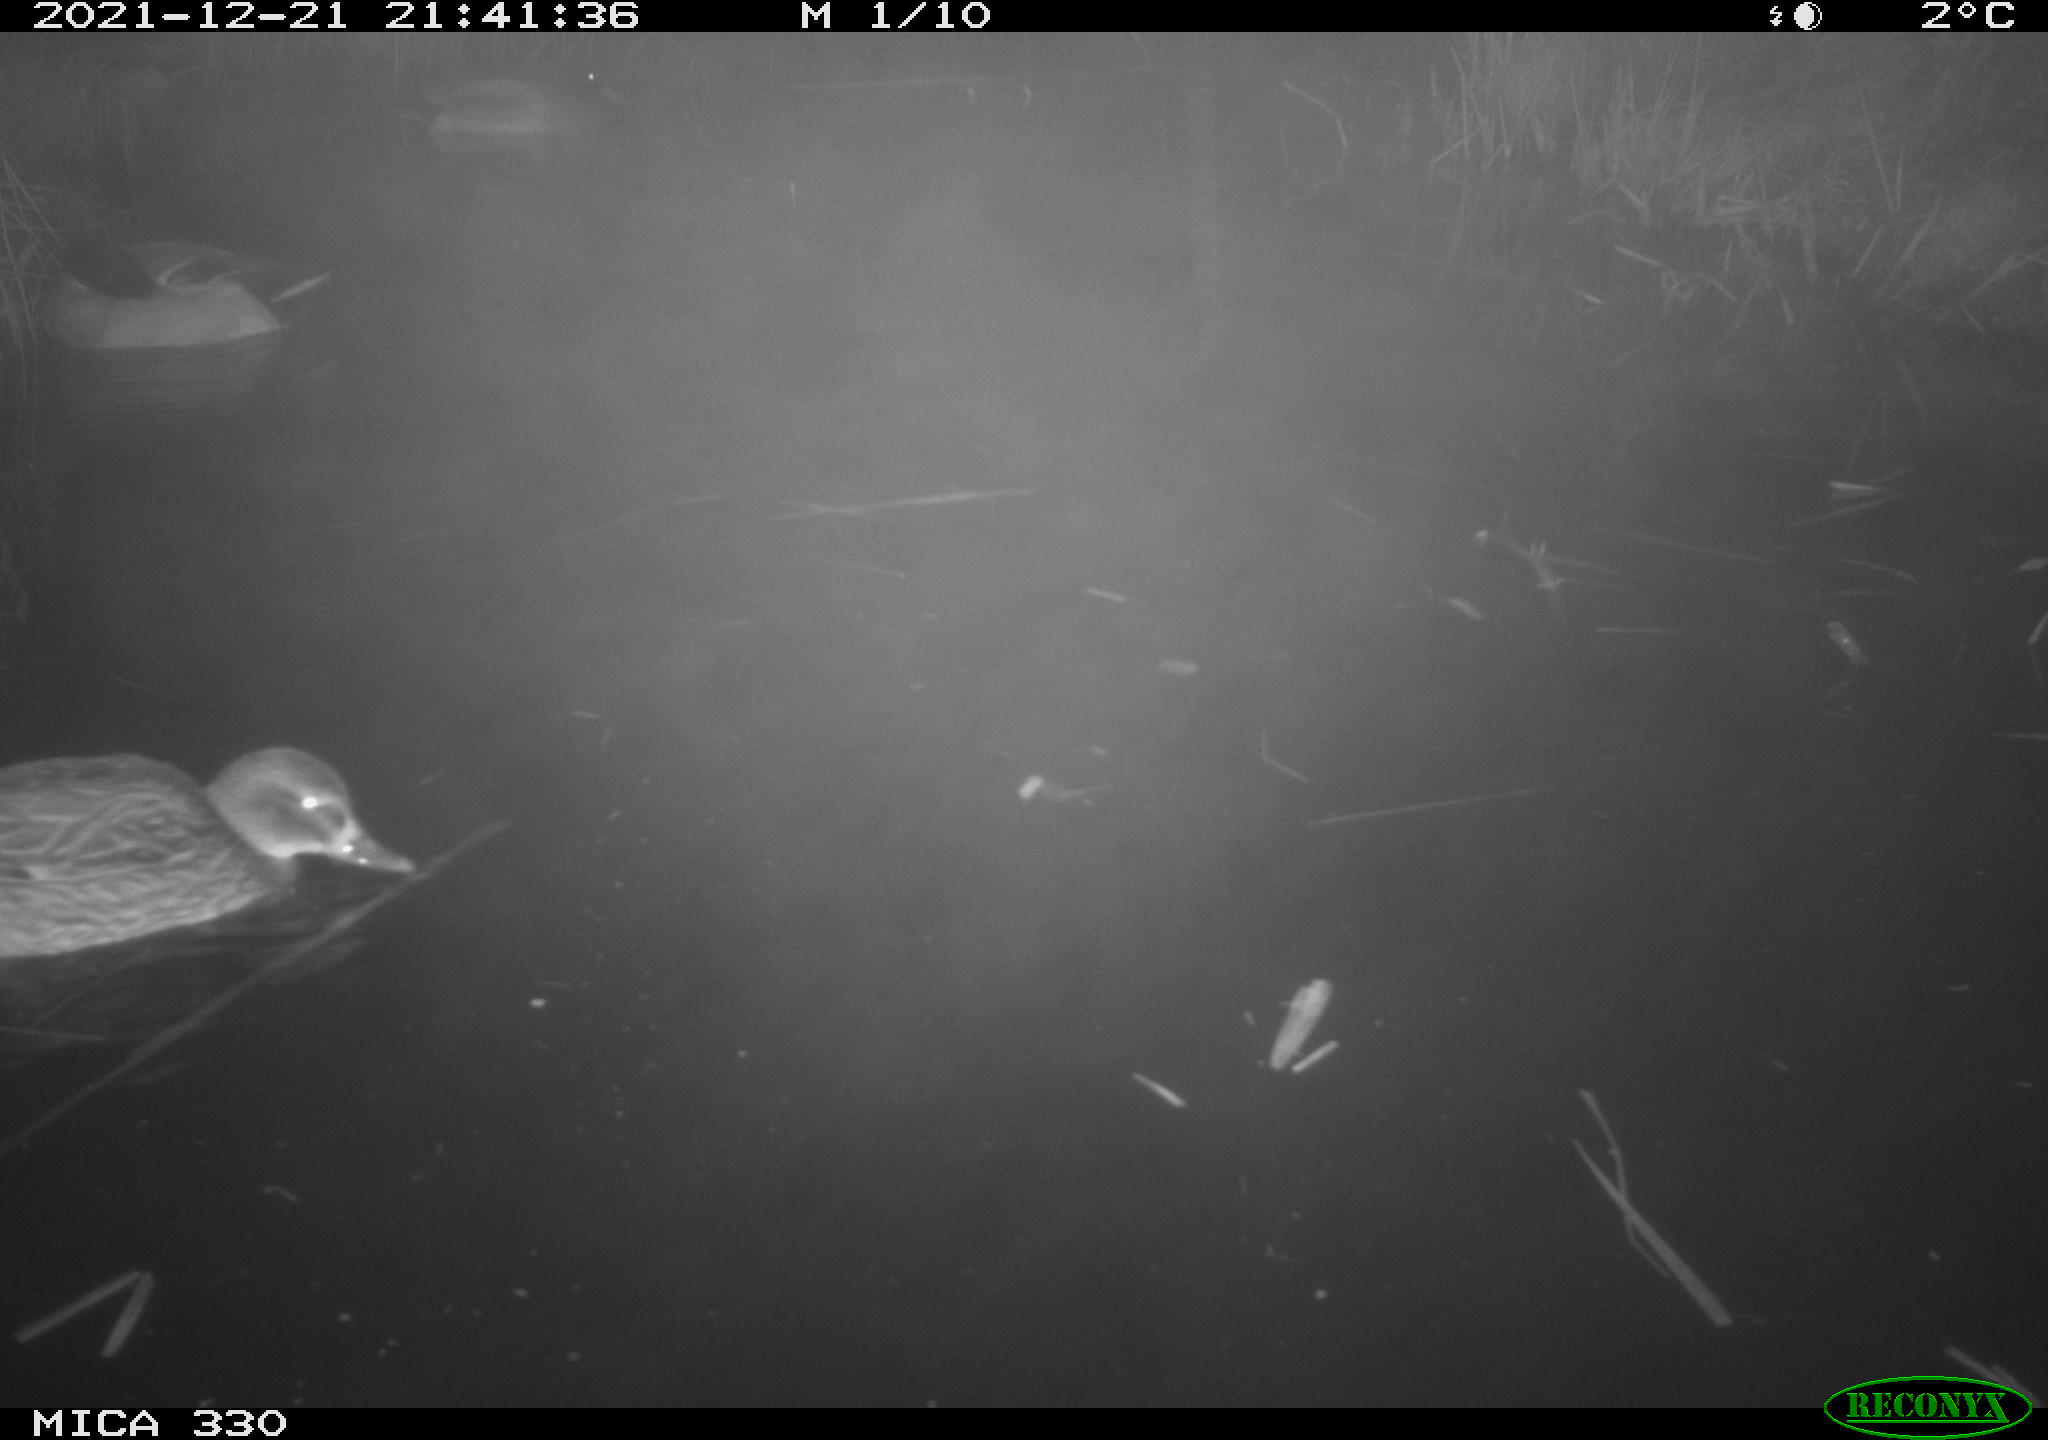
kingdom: Animalia
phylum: Chordata
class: Aves
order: Anseriformes
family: Anatidae
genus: Anas
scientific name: Anas platyrhynchos
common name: Mallard
